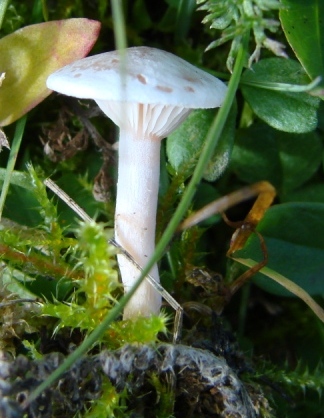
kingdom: Fungi
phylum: Basidiomycota
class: Agaricomycetes
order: Agaricales
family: Tricholomataceae
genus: Clitocybe
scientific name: Clitocybe rivulosa
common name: eng-tragthat
